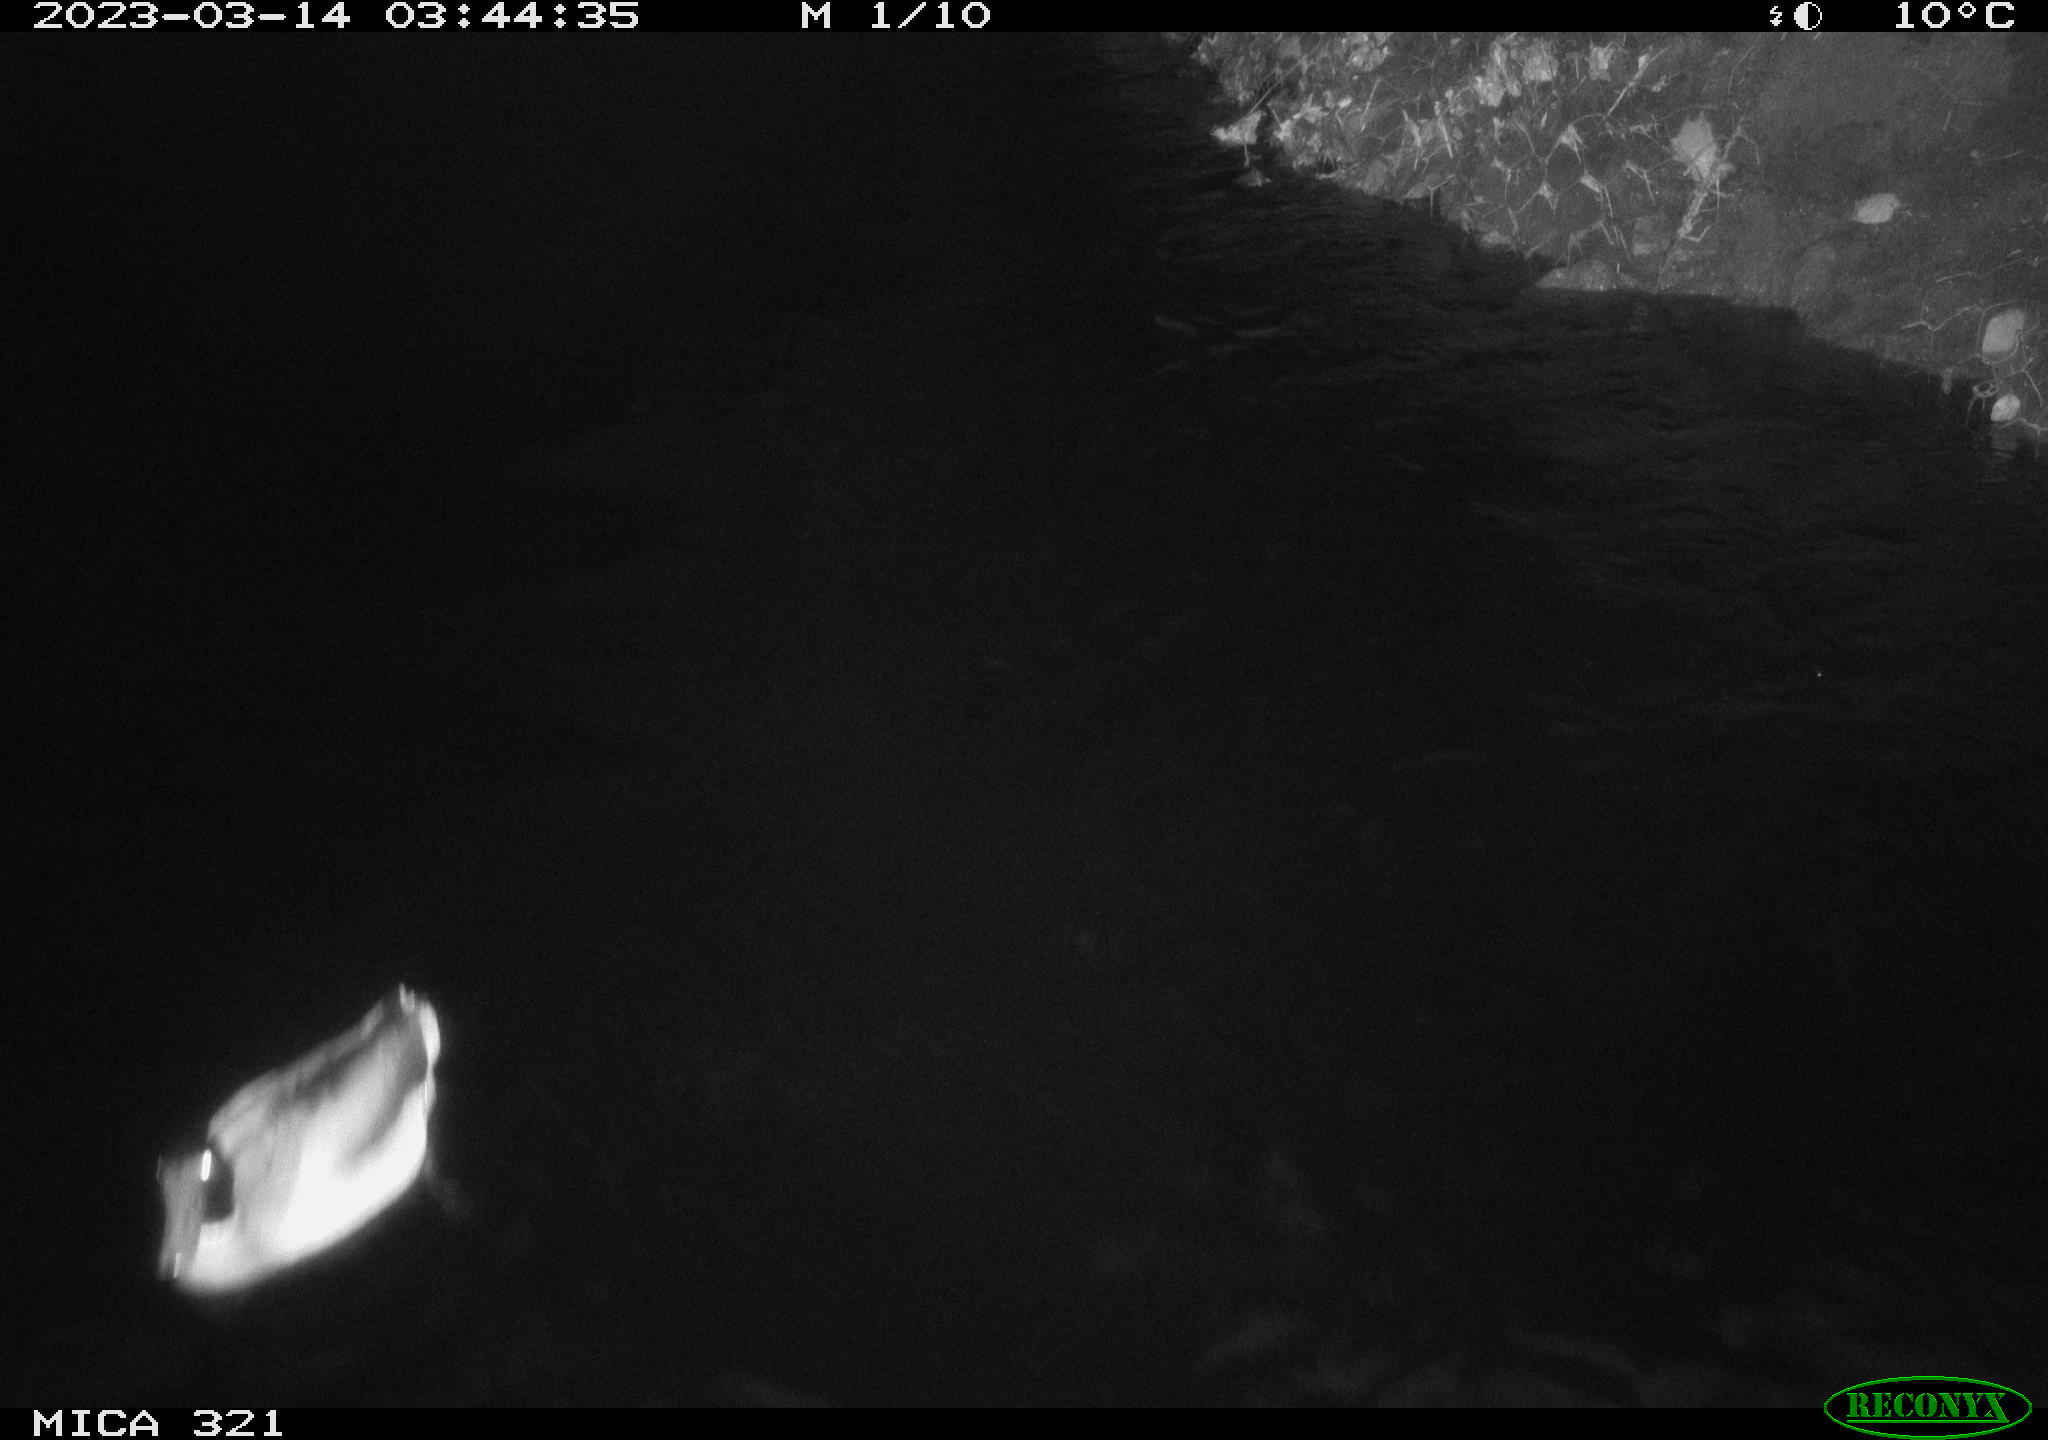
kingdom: Animalia
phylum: Chordata
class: Aves
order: Anseriformes
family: Anatidae
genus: Anas
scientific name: Anas
